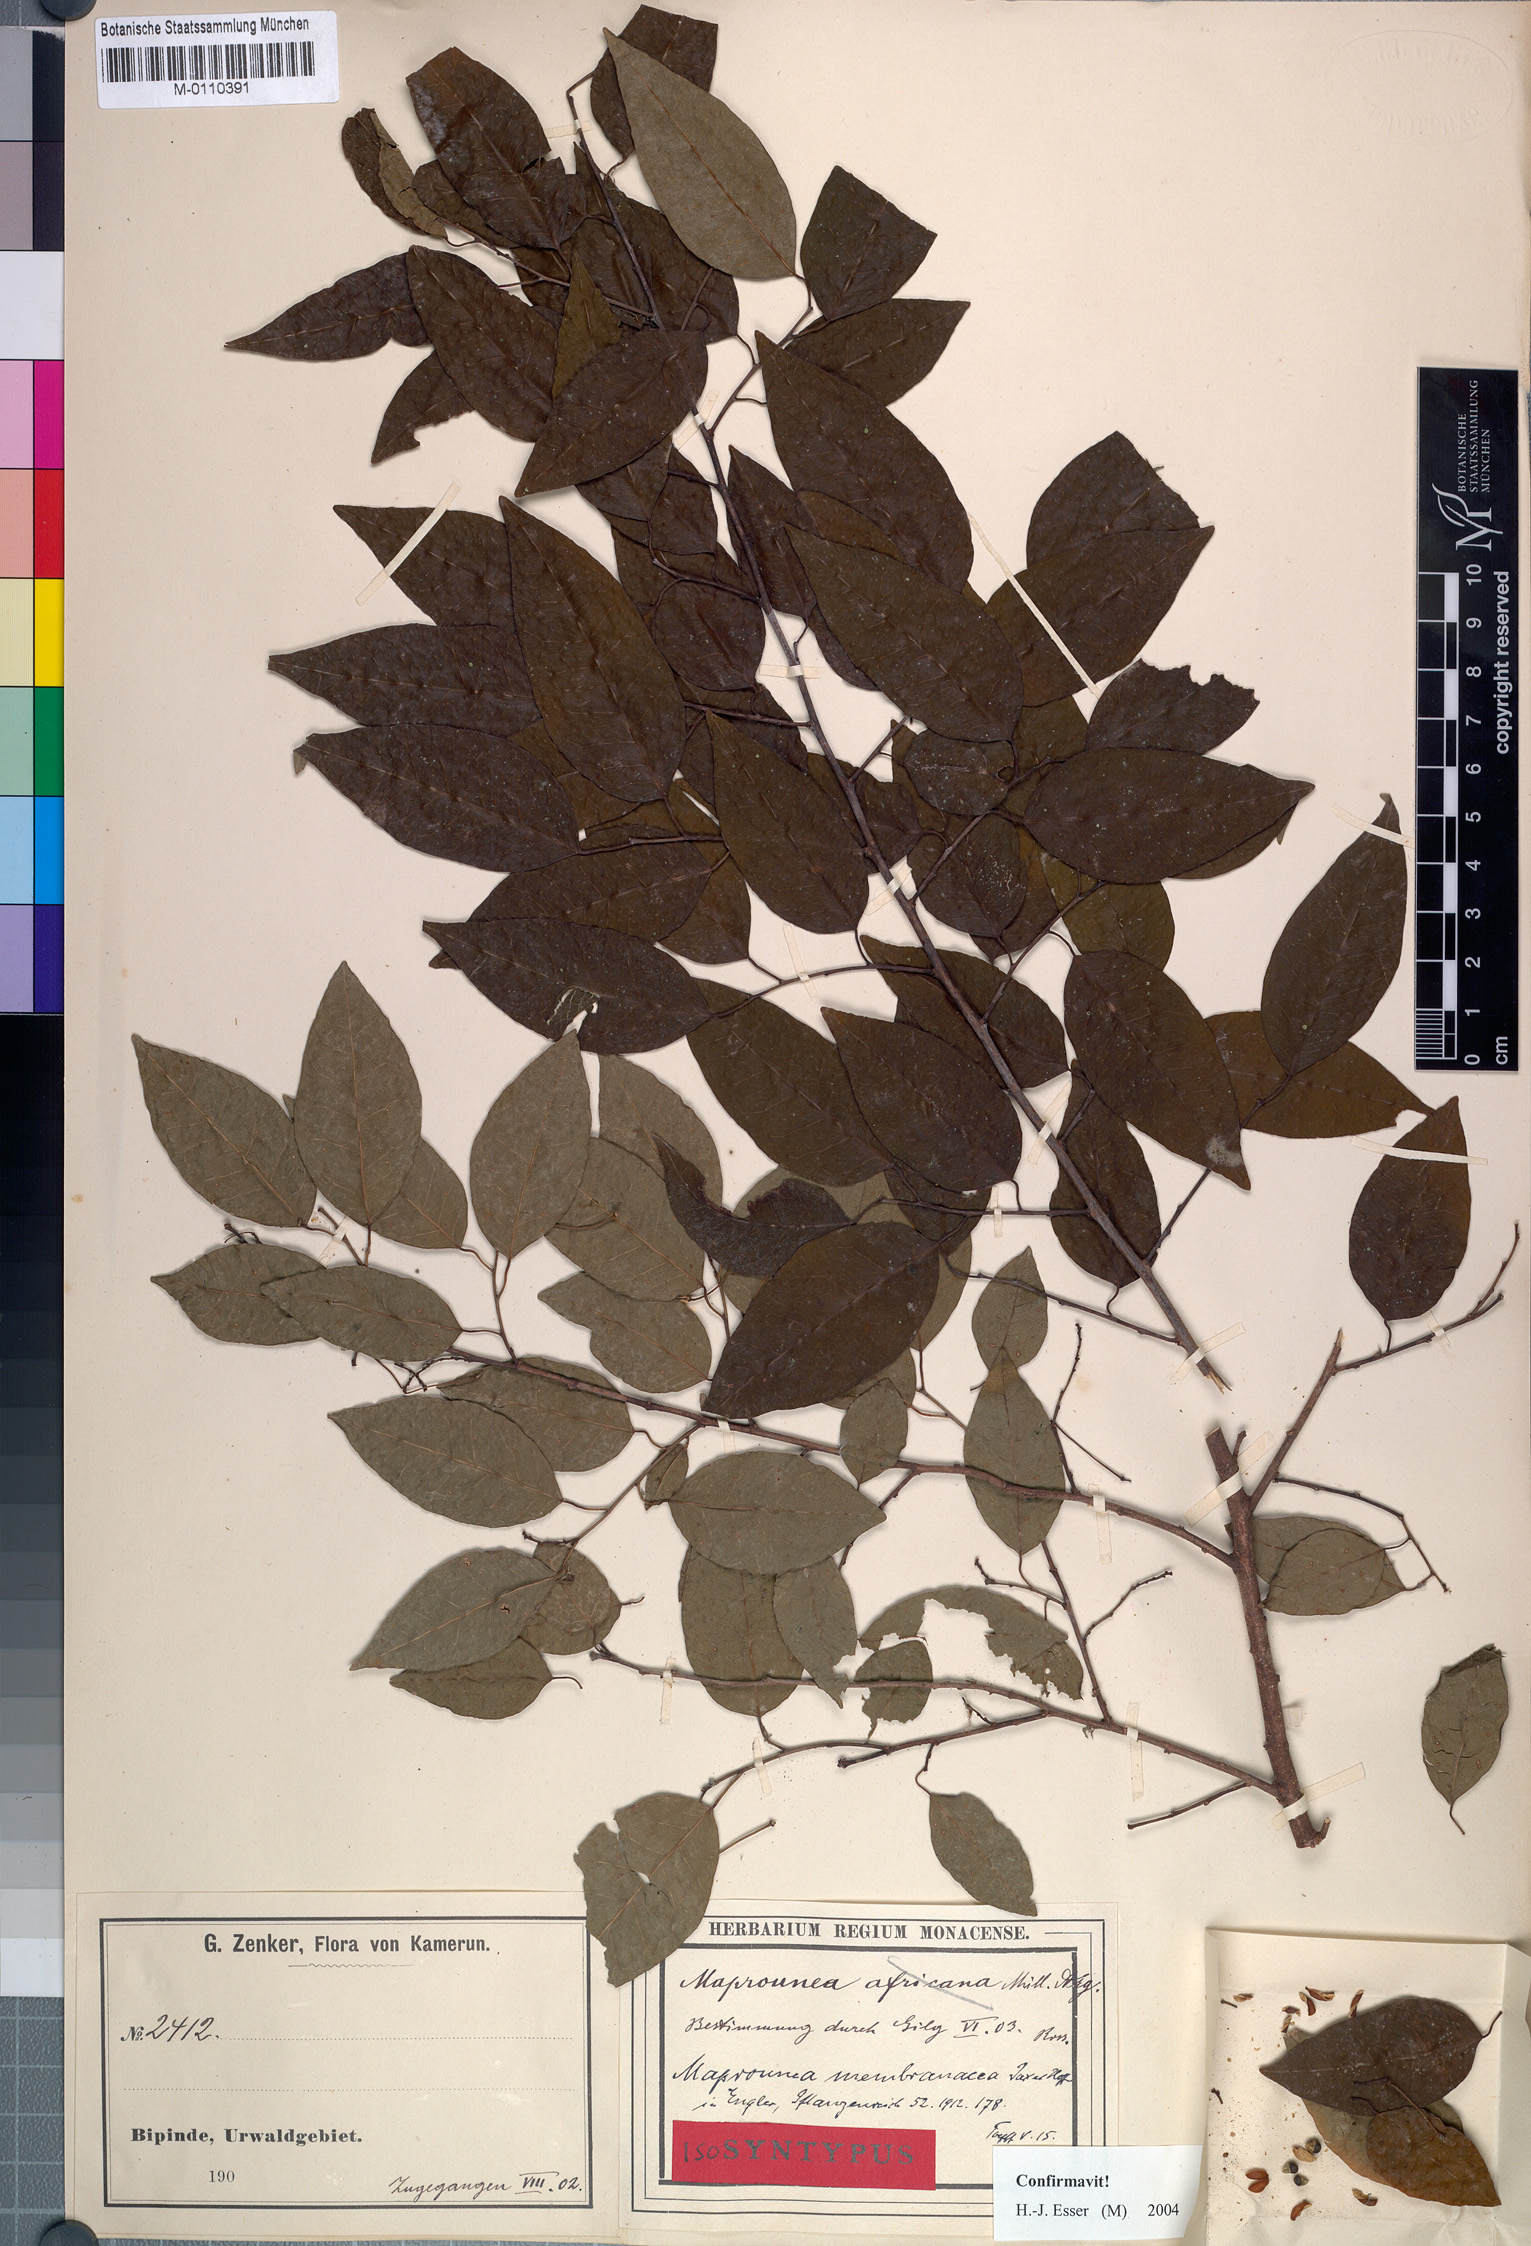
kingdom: Plantae
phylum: Tracheophyta
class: Magnoliopsida
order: Malpighiales
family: Euphorbiaceae
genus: Maprounea
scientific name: Maprounea membranacea
